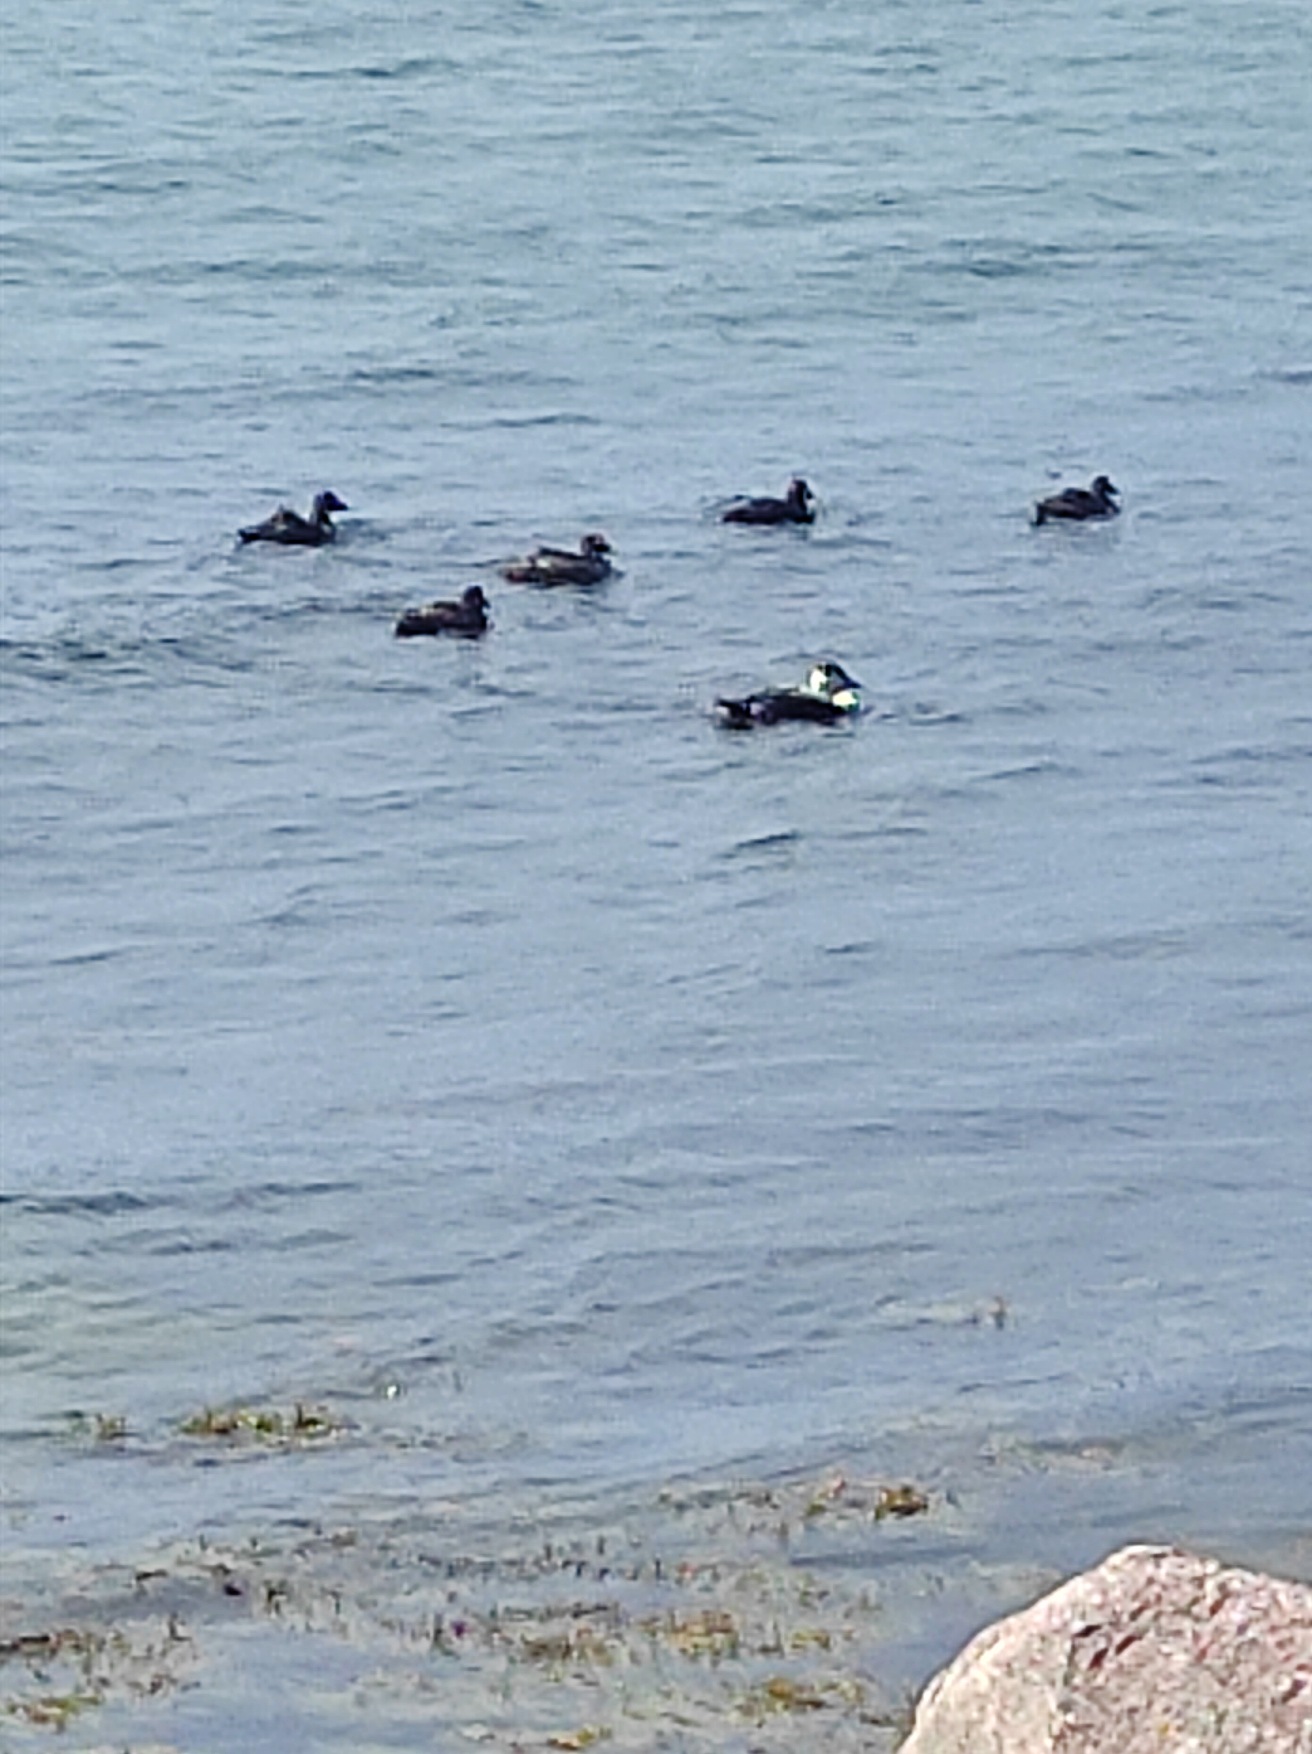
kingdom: Animalia
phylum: Chordata
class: Aves
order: Anseriformes
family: Anatidae
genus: Somateria
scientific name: Somateria mollissima
